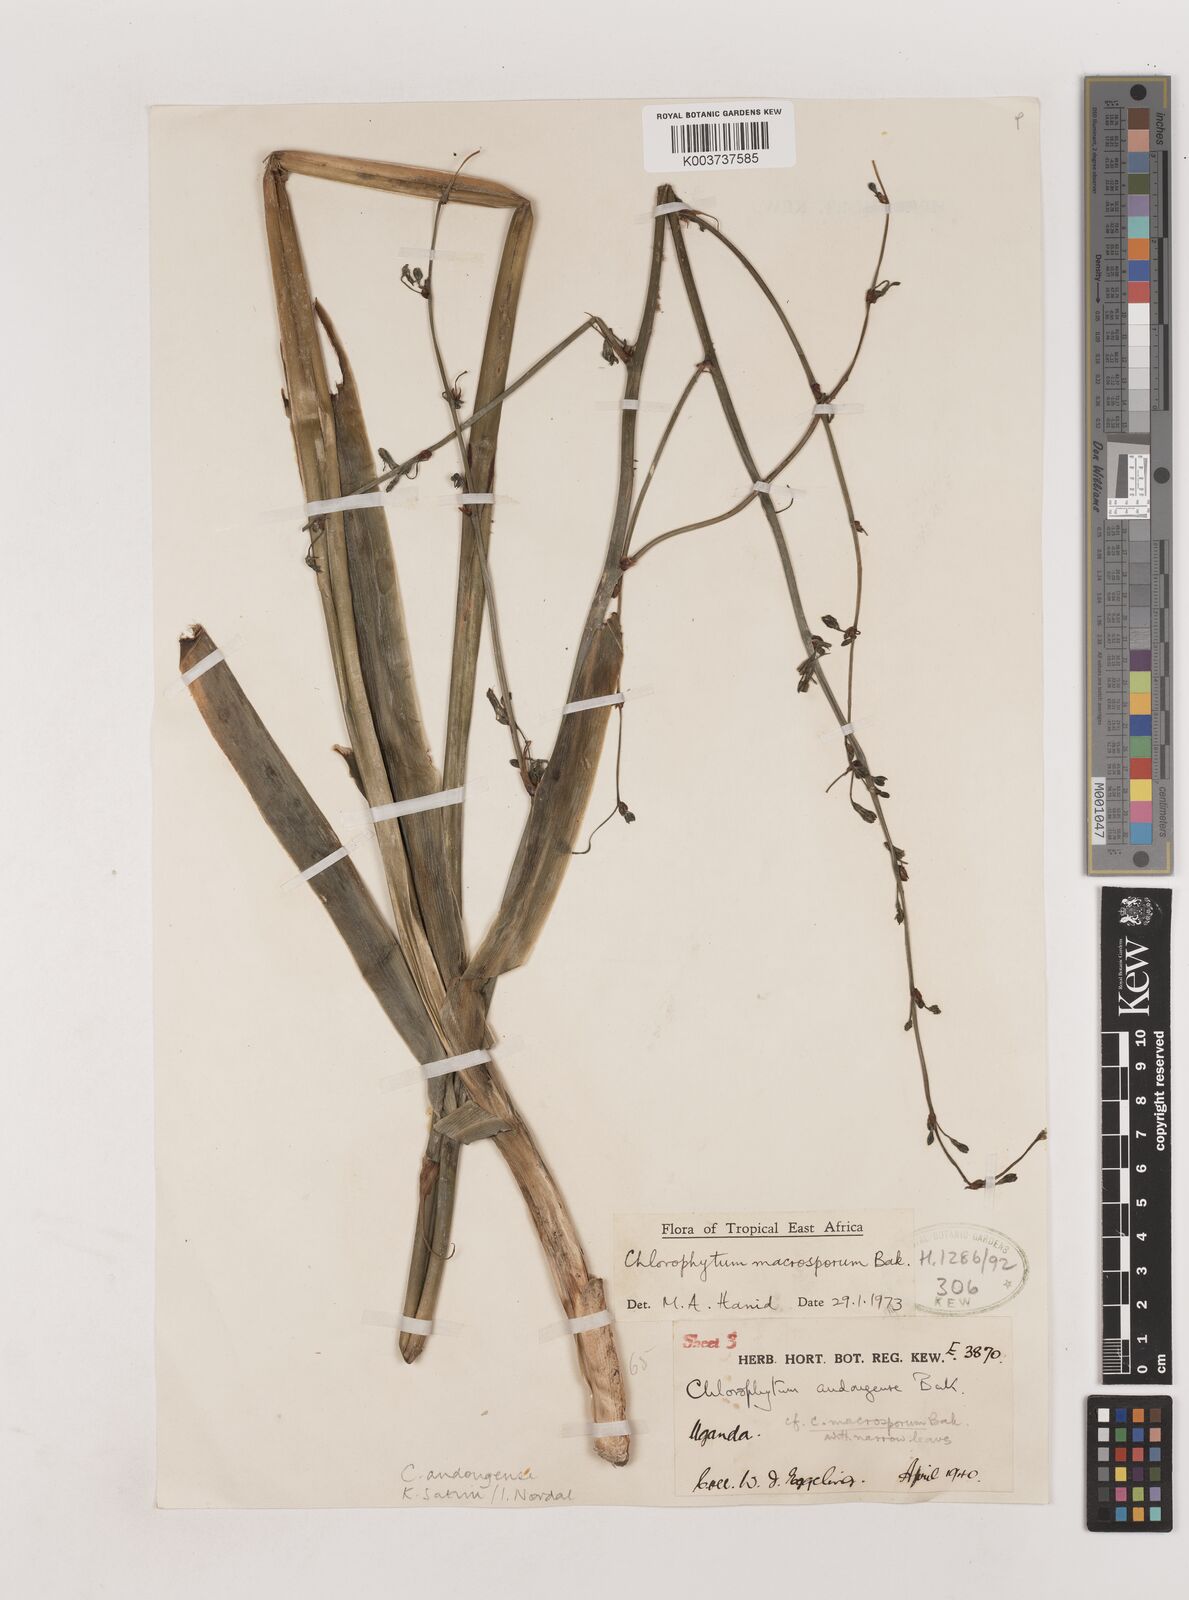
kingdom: Plantae
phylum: Tracheophyta
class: Liliopsida
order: Asparagales
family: Asparagaceae
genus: Chlorophytum
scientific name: Chlorophytum andongense
